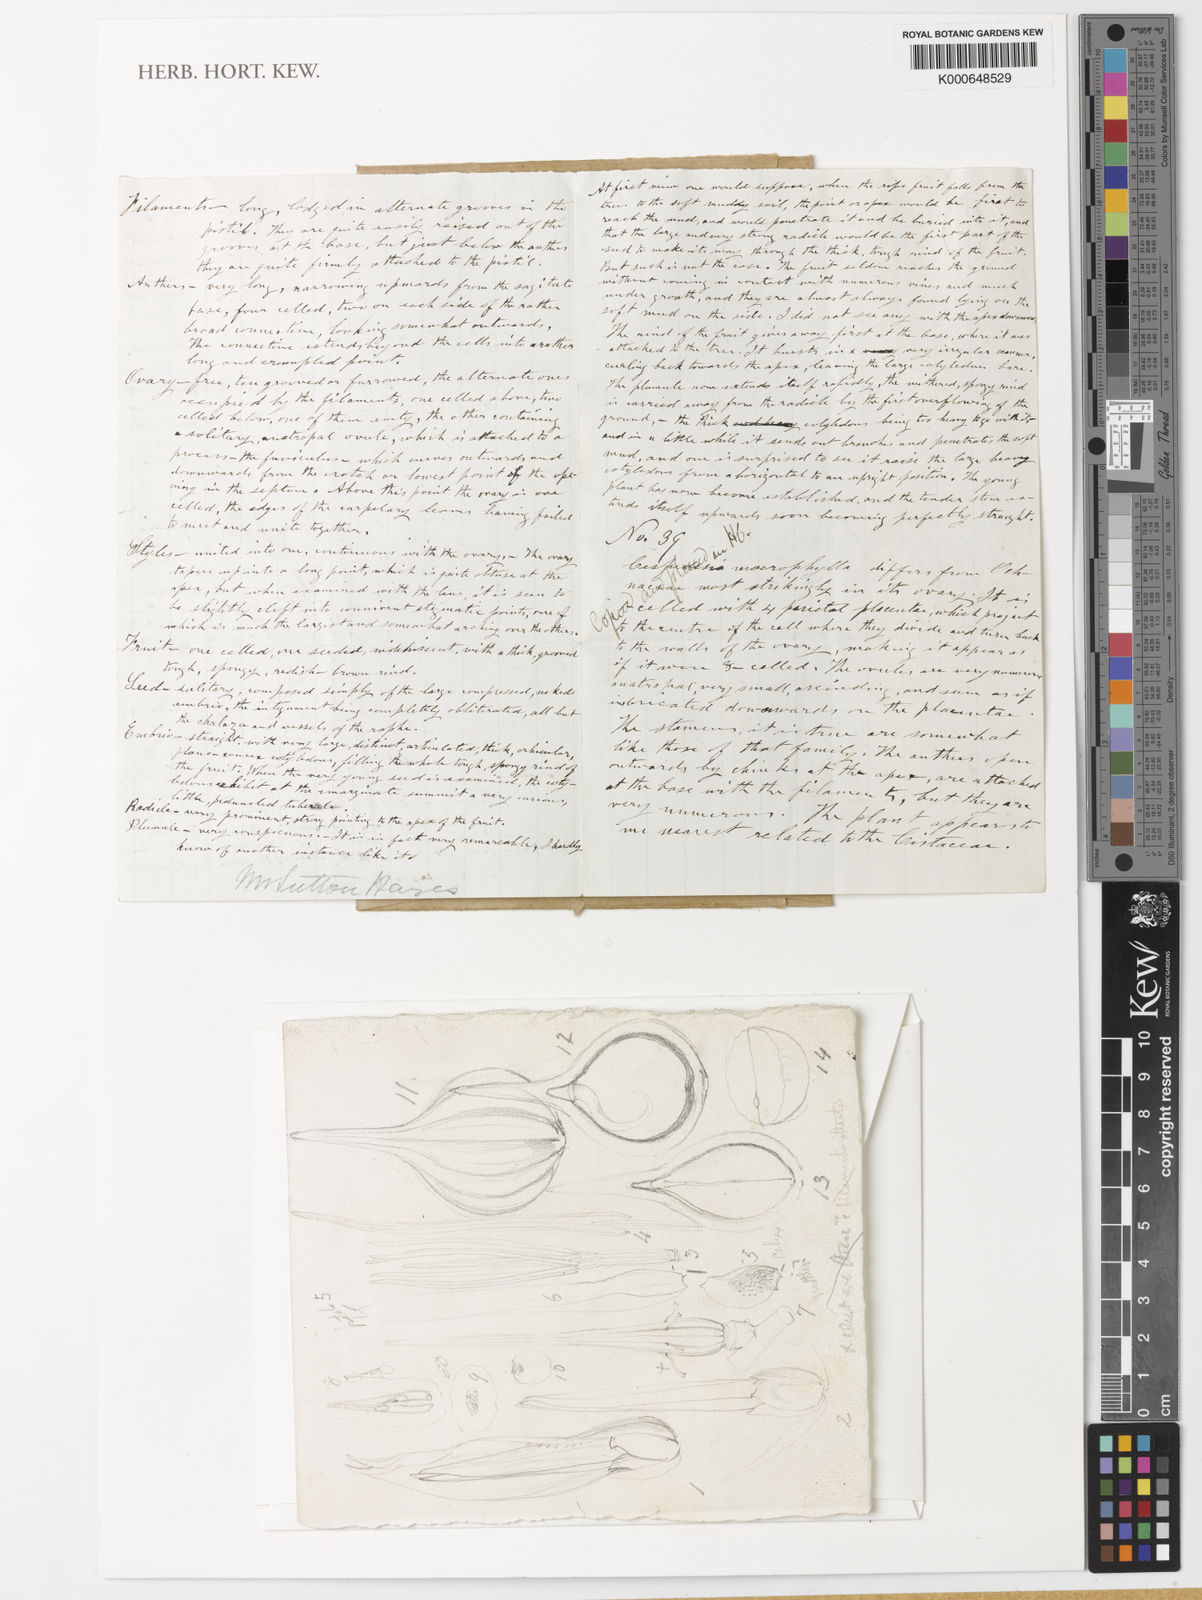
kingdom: Plantae
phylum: Tracheophyta
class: Magnoliopsida
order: Ericales
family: Tetrameristaceae
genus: Pelliciera
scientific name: Pelliciera rhizophorae
